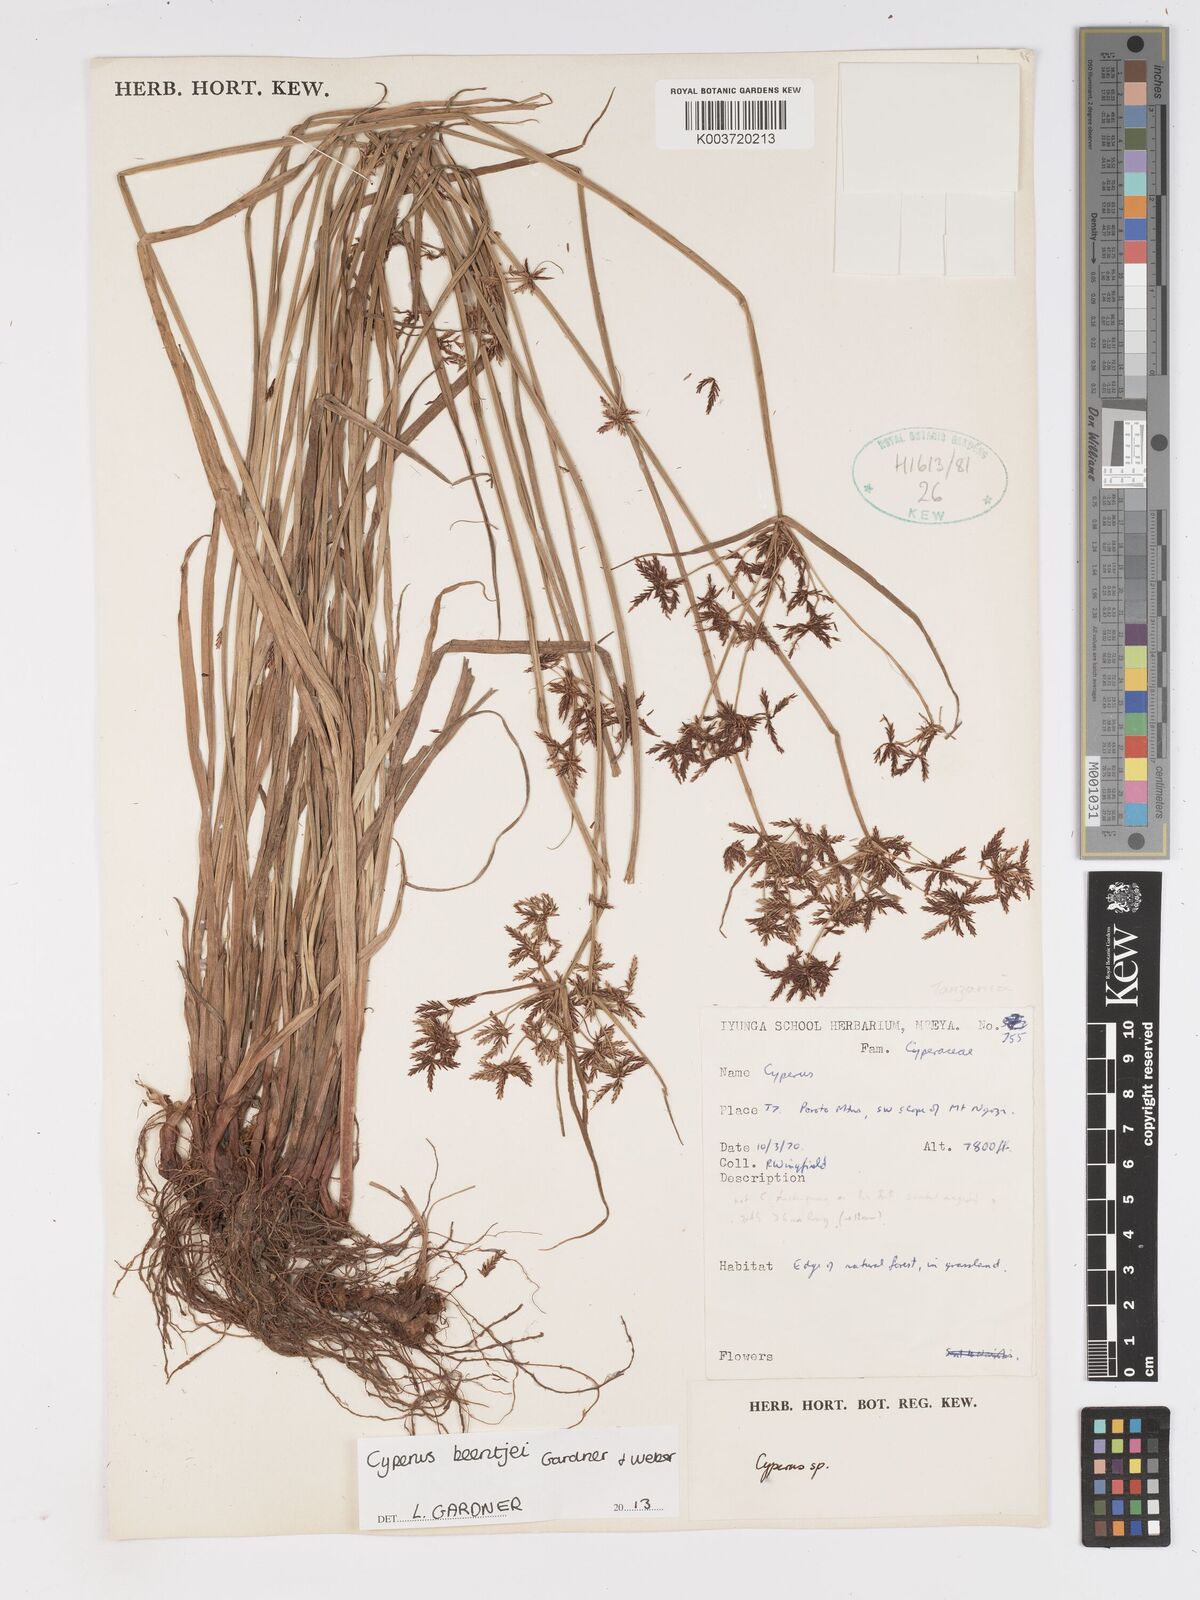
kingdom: Plantae
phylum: Tracheophyta
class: Liliopsida
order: Poales
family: Cyperaceae
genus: Cyperus
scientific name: Cyperus beentjei
